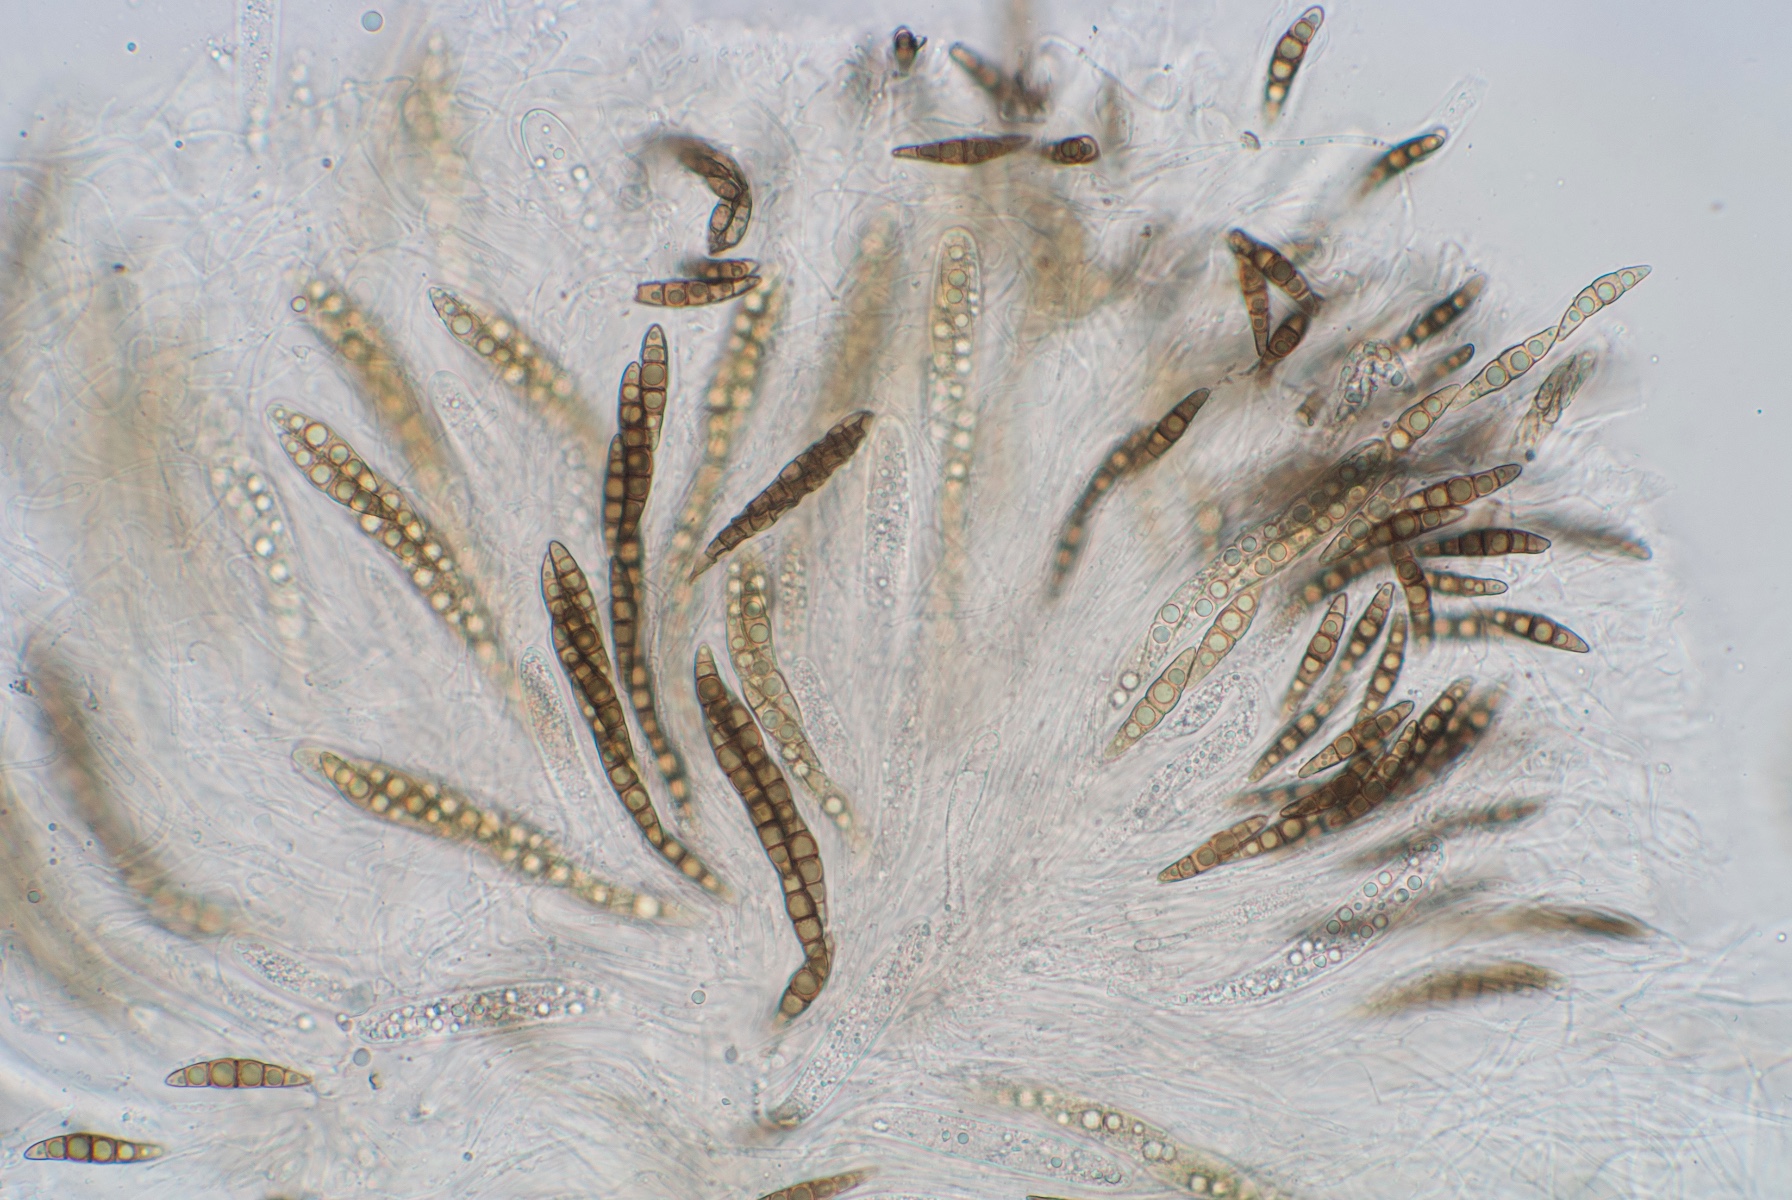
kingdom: Fungi
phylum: Ascomycota
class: Dothideomycetes
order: Pleosporales
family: Lophiostomataceae
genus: Sigarispora
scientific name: Sigarispora arundinis
